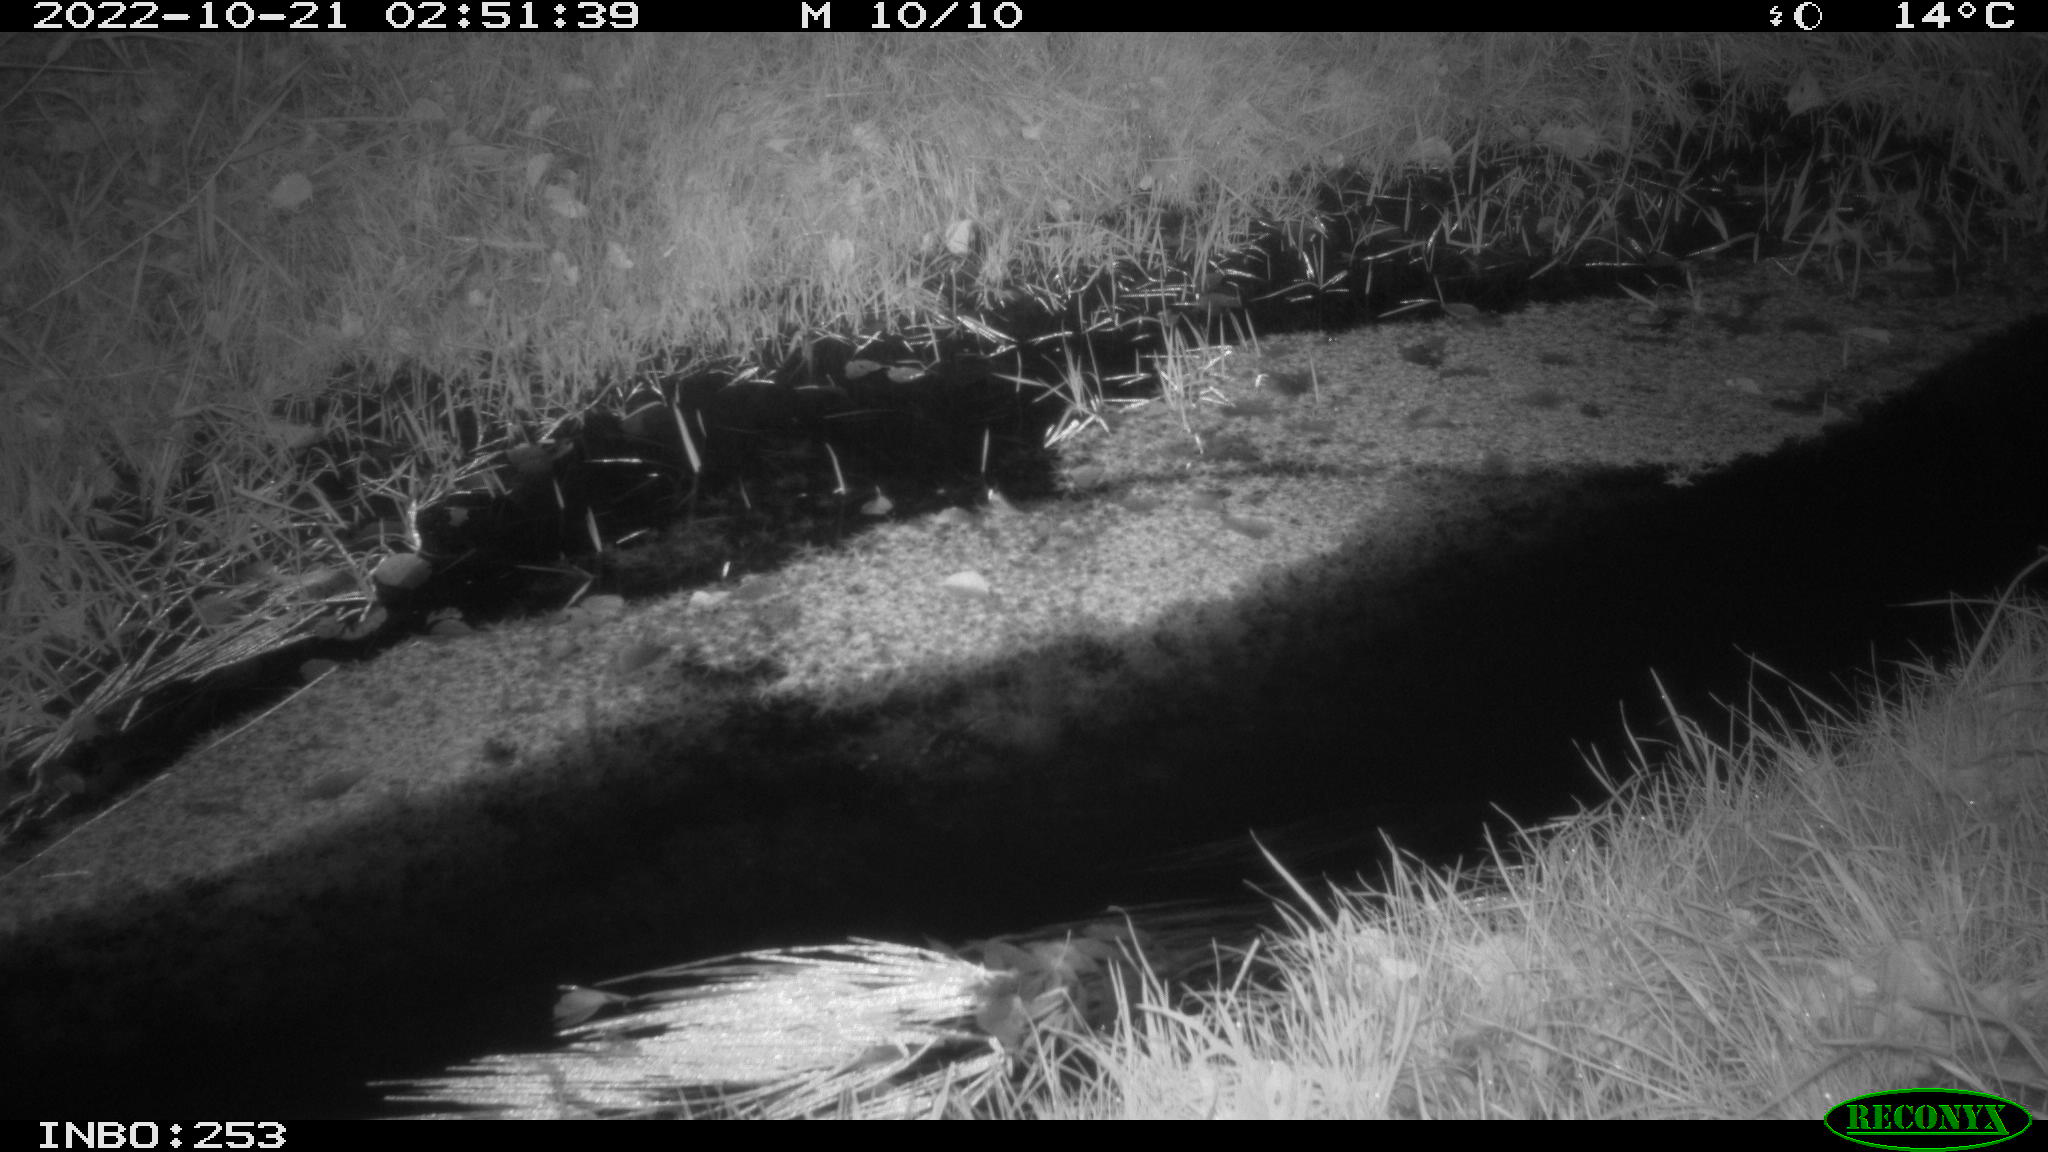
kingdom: Animalia
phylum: Chordata
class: Mammalia
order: Rodentia
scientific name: Rodentia
